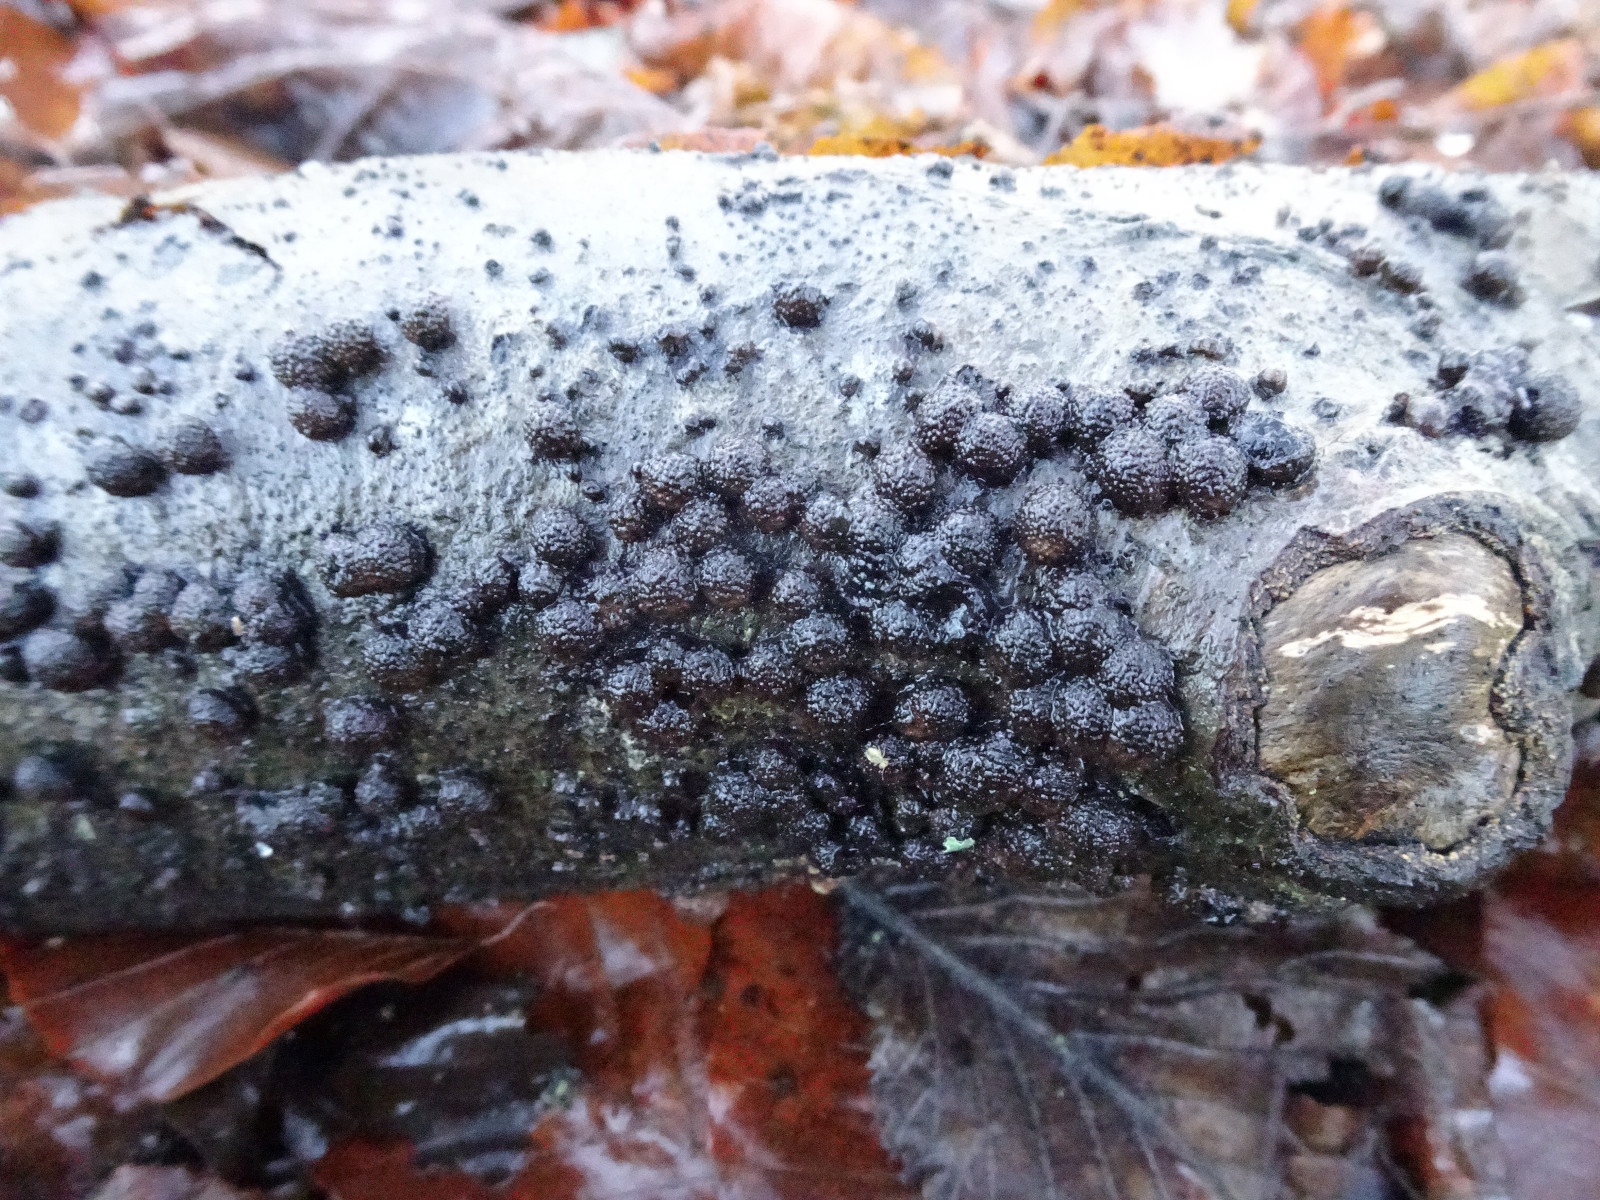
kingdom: Fungi
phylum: Ascomycota
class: Sordariomycetes
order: Xylariales
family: Hypoxylaceae
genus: Hypoxylon
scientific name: Hypoxylon fragiforme
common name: kuljordbær
